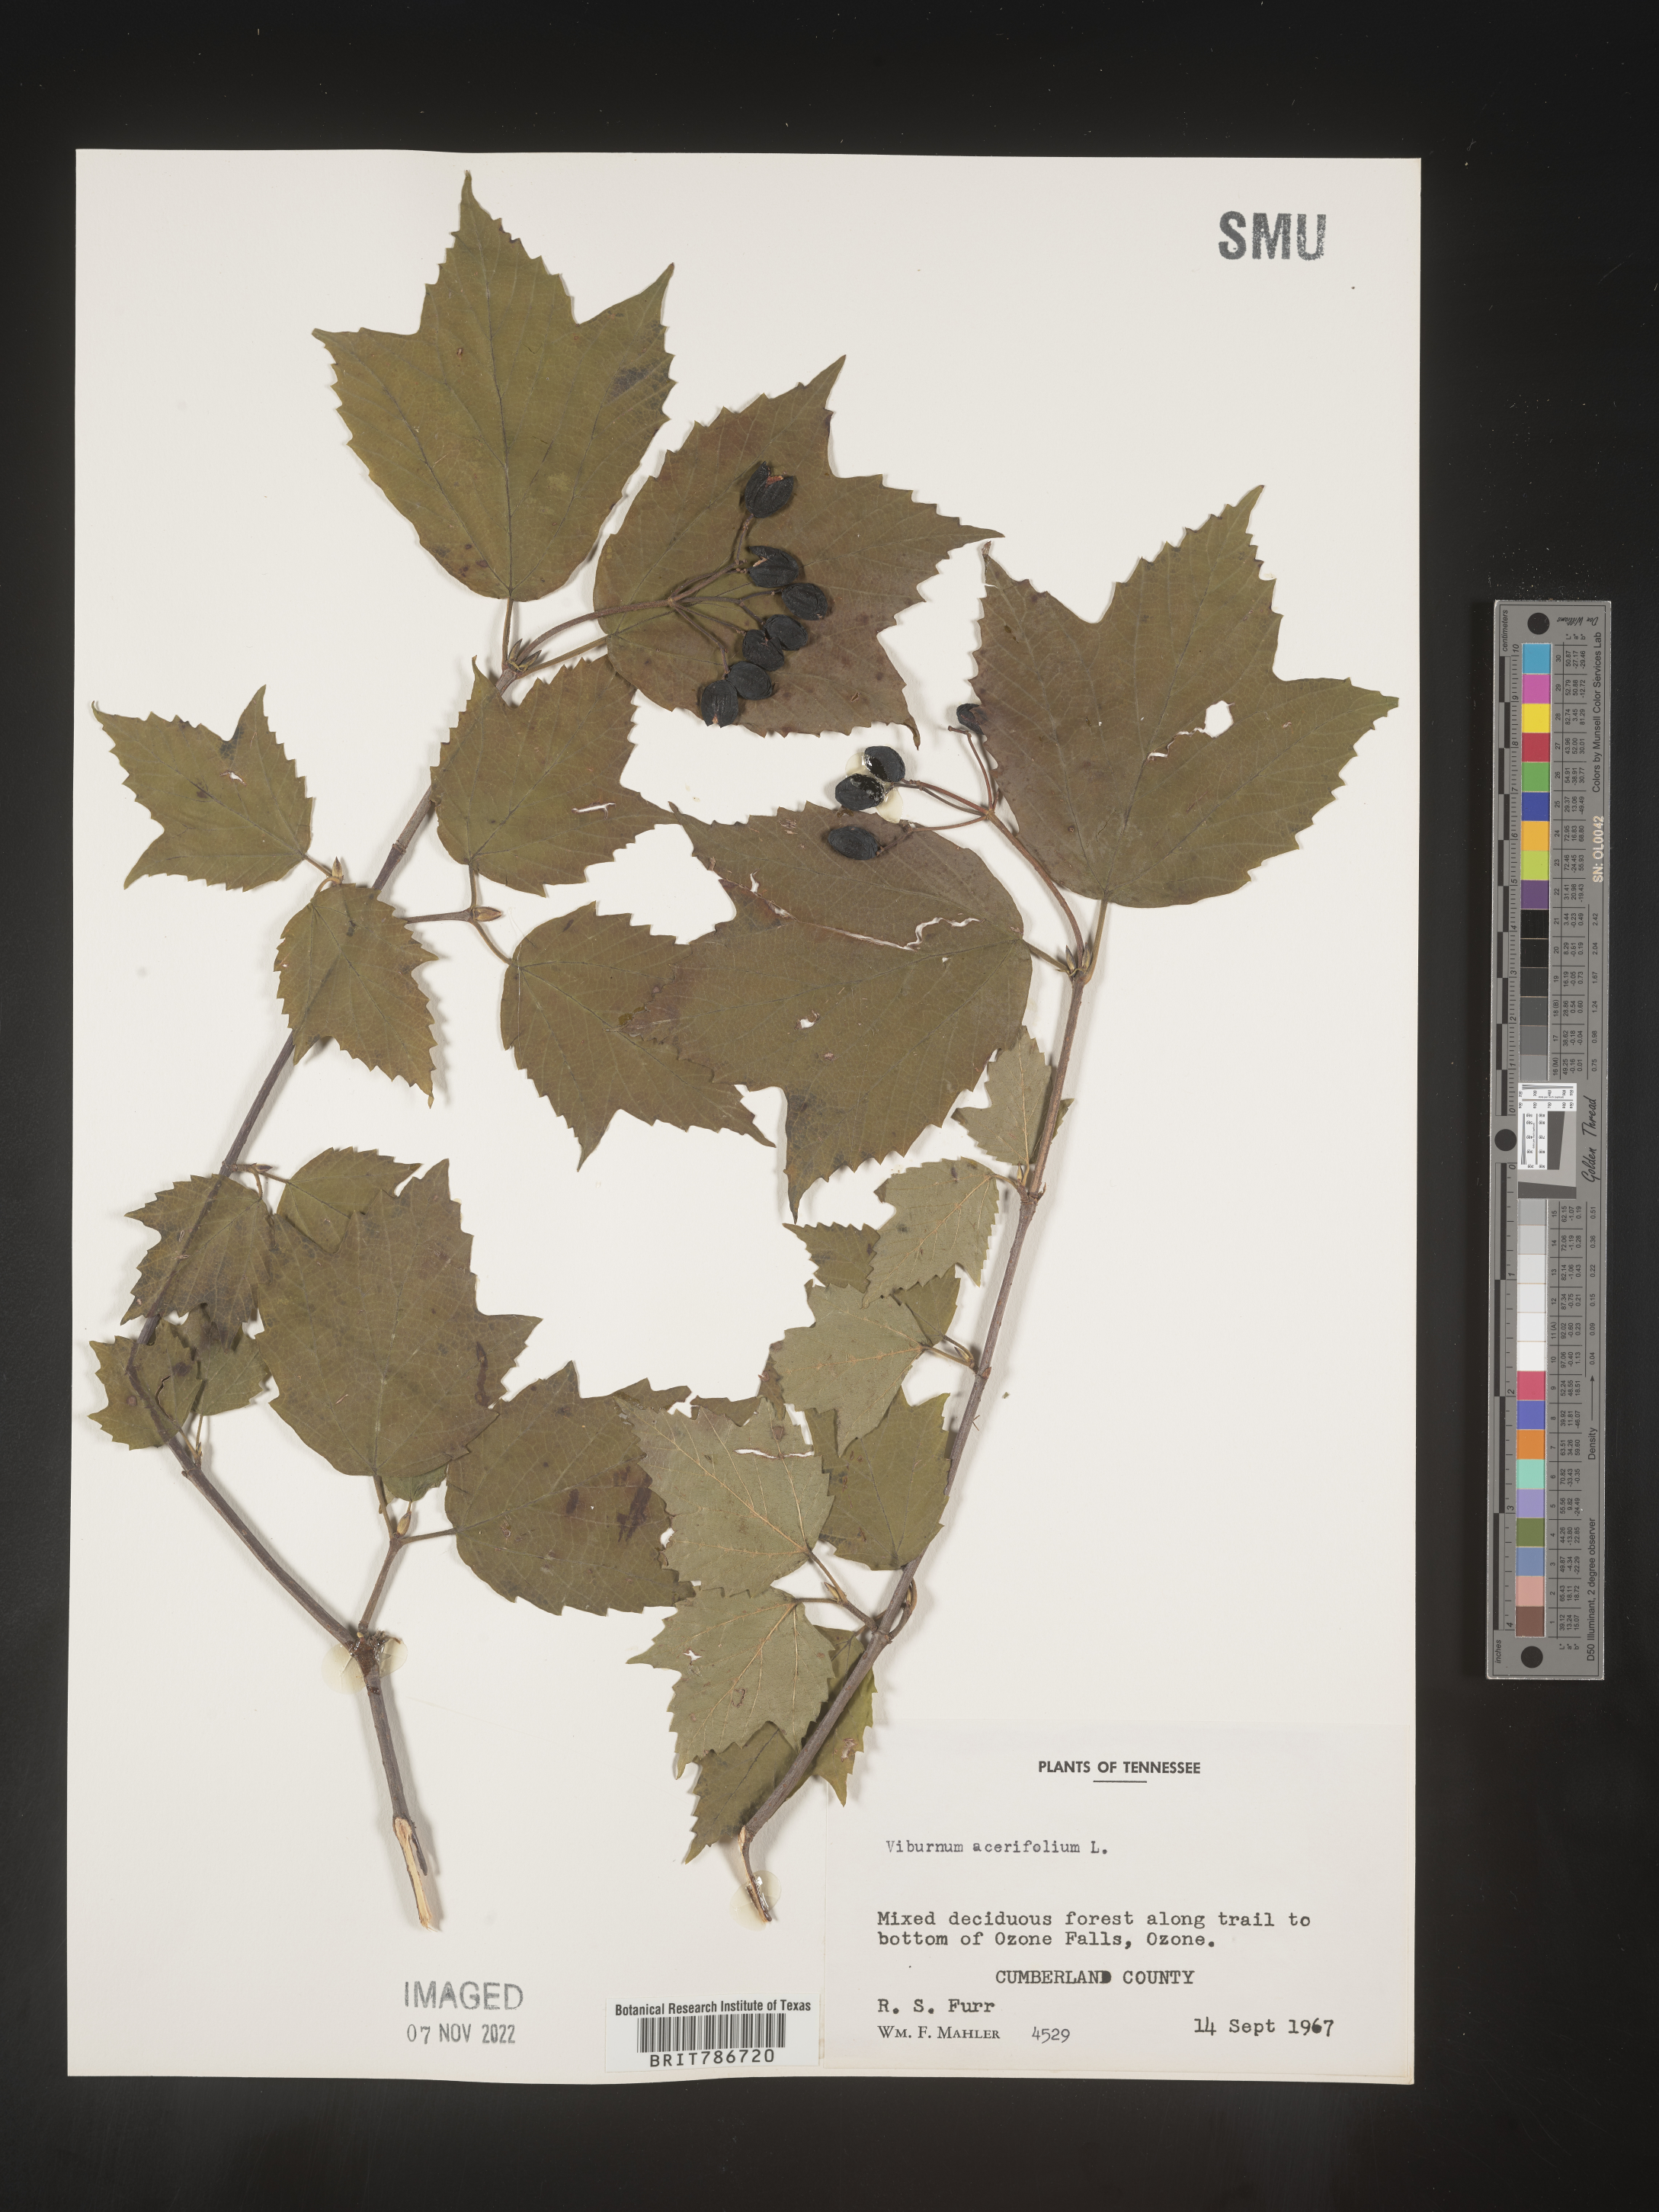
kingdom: Plantae
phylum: Tracheophyta
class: Magnoliopsida
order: Dipsacales
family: Viburnaceae
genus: Viburnum
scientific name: Viburnum acerifolium
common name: Dockmackie
